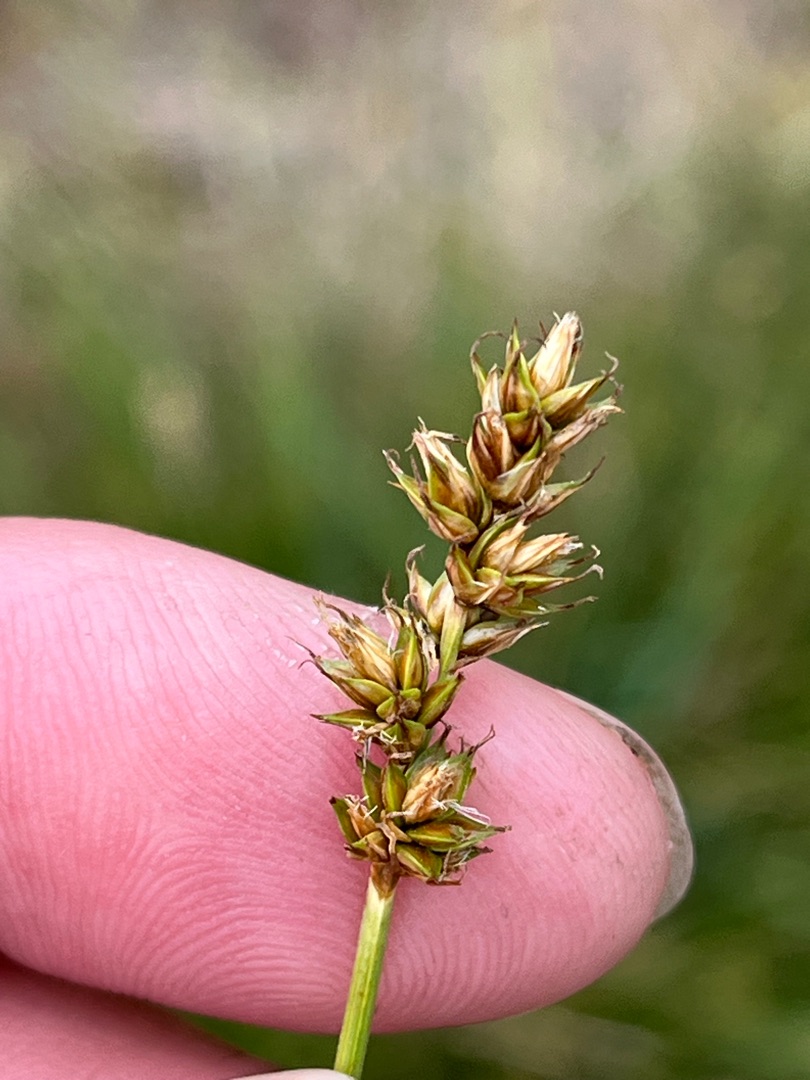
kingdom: Plantae
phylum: Tracheophyta
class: Liliopsida
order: Poales
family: Cyperaceae
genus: Carex
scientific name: Carex spicata
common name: Spidskapslet star
